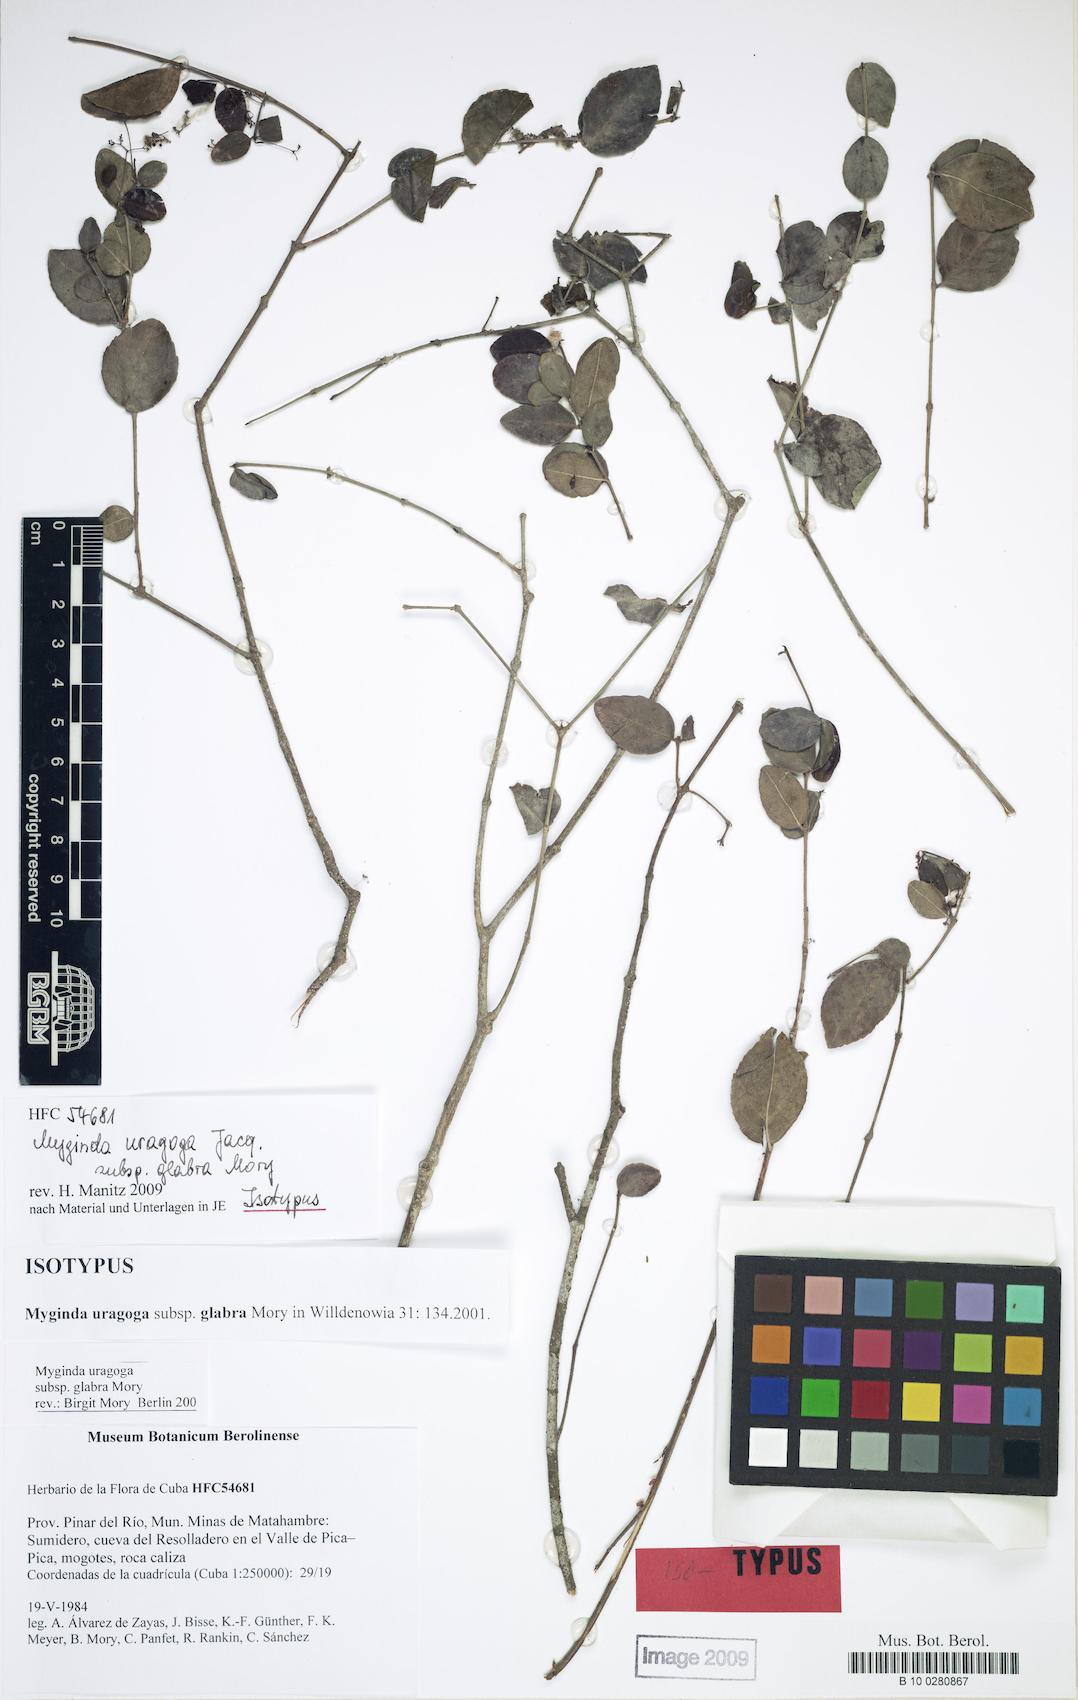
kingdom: Plantae
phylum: Tracheophyta
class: Magnoliopsida
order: Celastrales
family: Celastraceae
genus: Crossopetalum
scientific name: Crossopetalum uragoga
